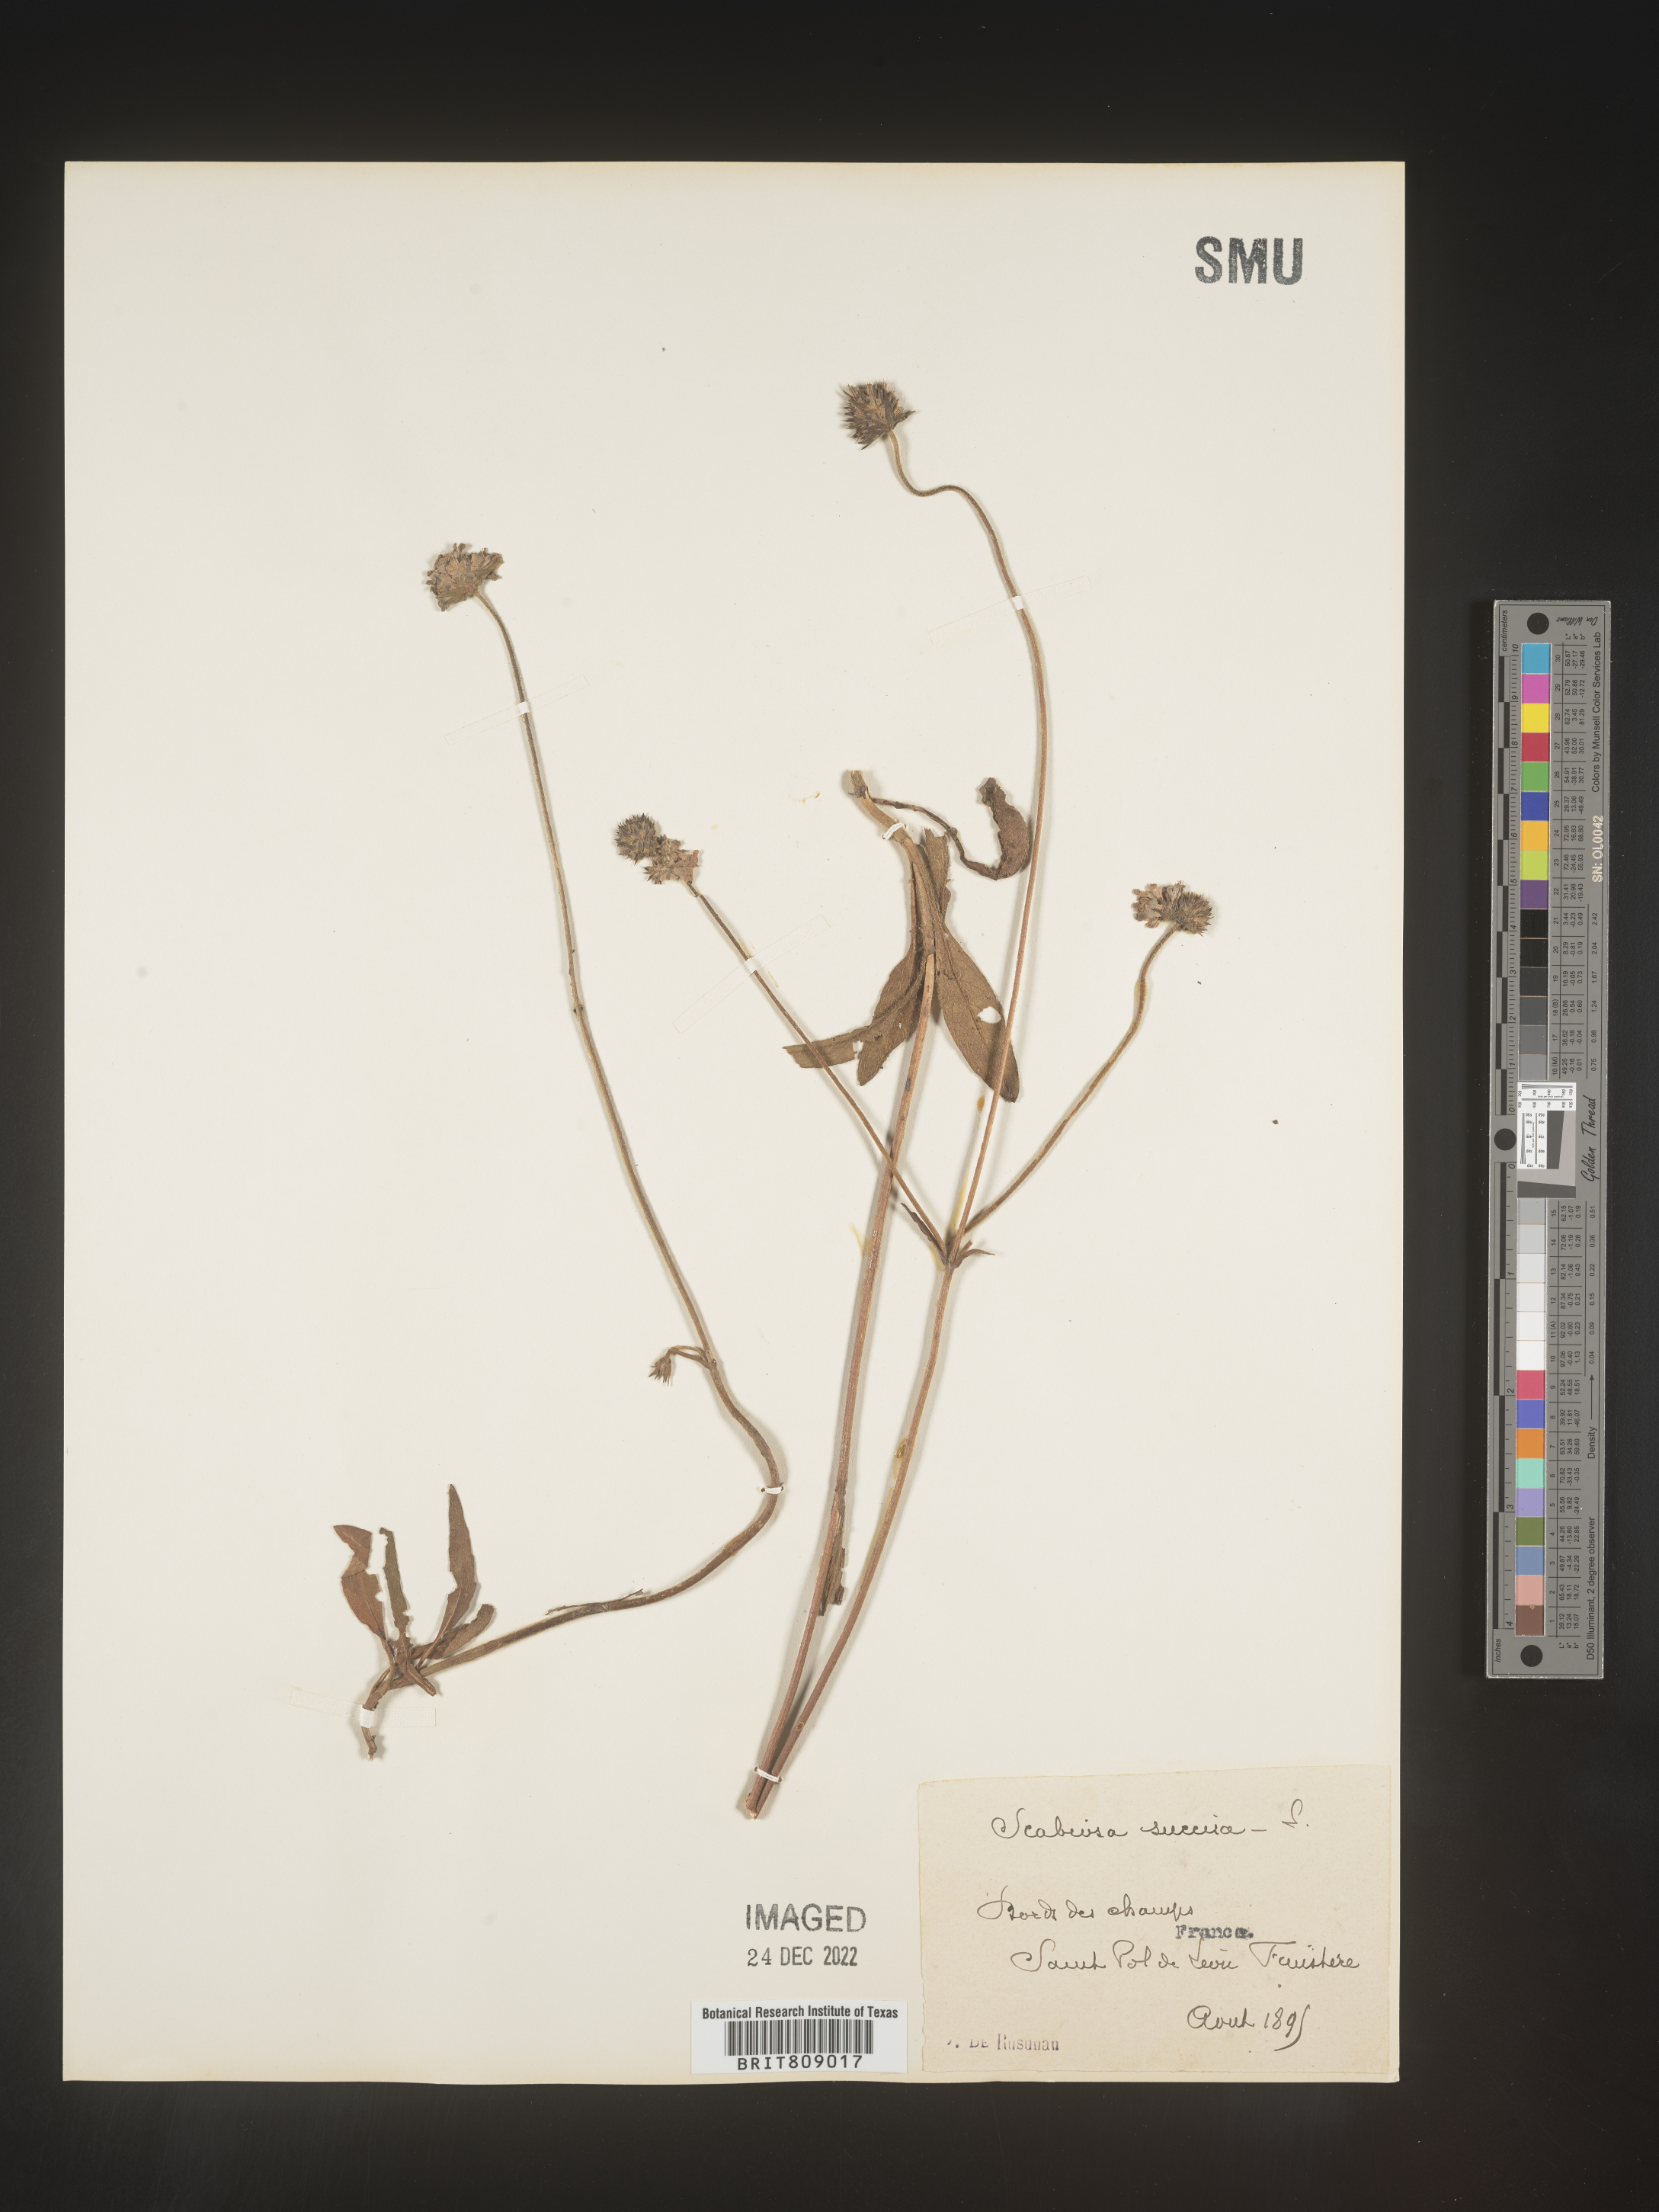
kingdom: Plantae
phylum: Tracheophyta
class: Magnoliopsida
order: Dipsacales
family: Caprifoliaceae
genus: Succisa
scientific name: Succisa
